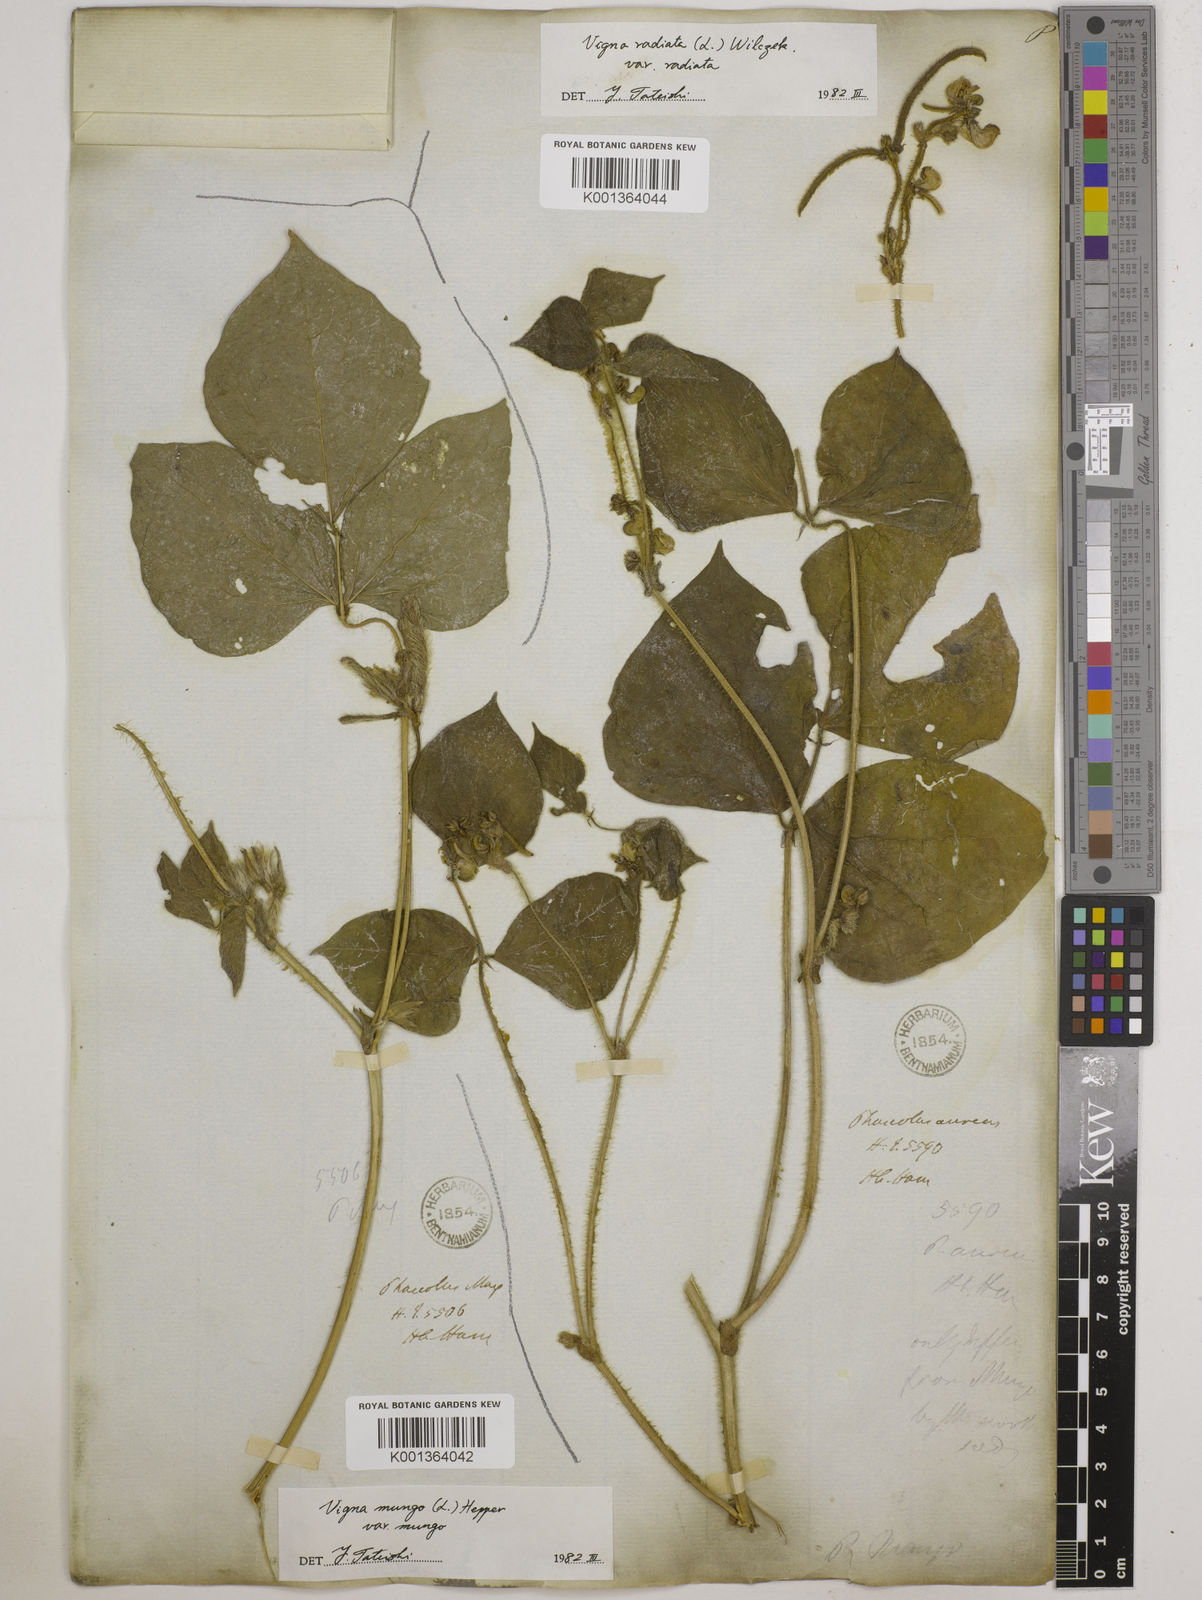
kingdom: Plantae
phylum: Tracheophyta
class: Magnoliopsida
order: Fabales
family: Fabaceae
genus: Vigna
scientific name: Vigna radiata
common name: Mung-bean
